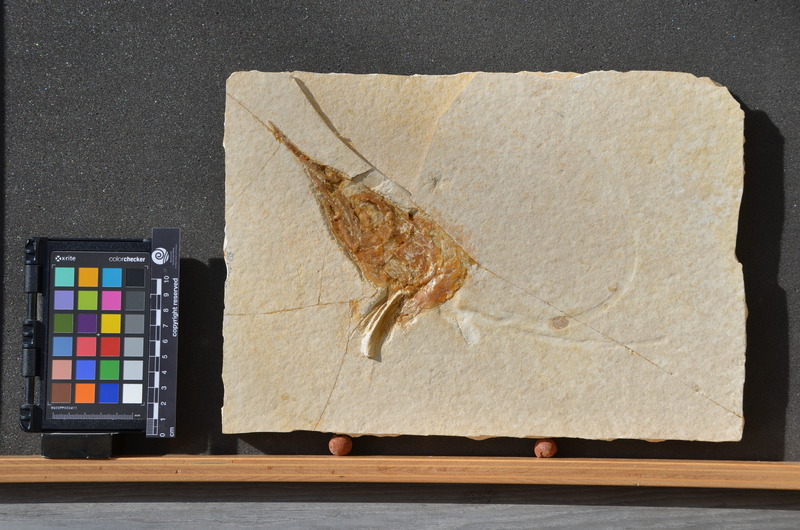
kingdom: Animalia
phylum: Chordata
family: Aspidorhynchidae
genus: Aspidorhynchus
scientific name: Aspidorhynchus
